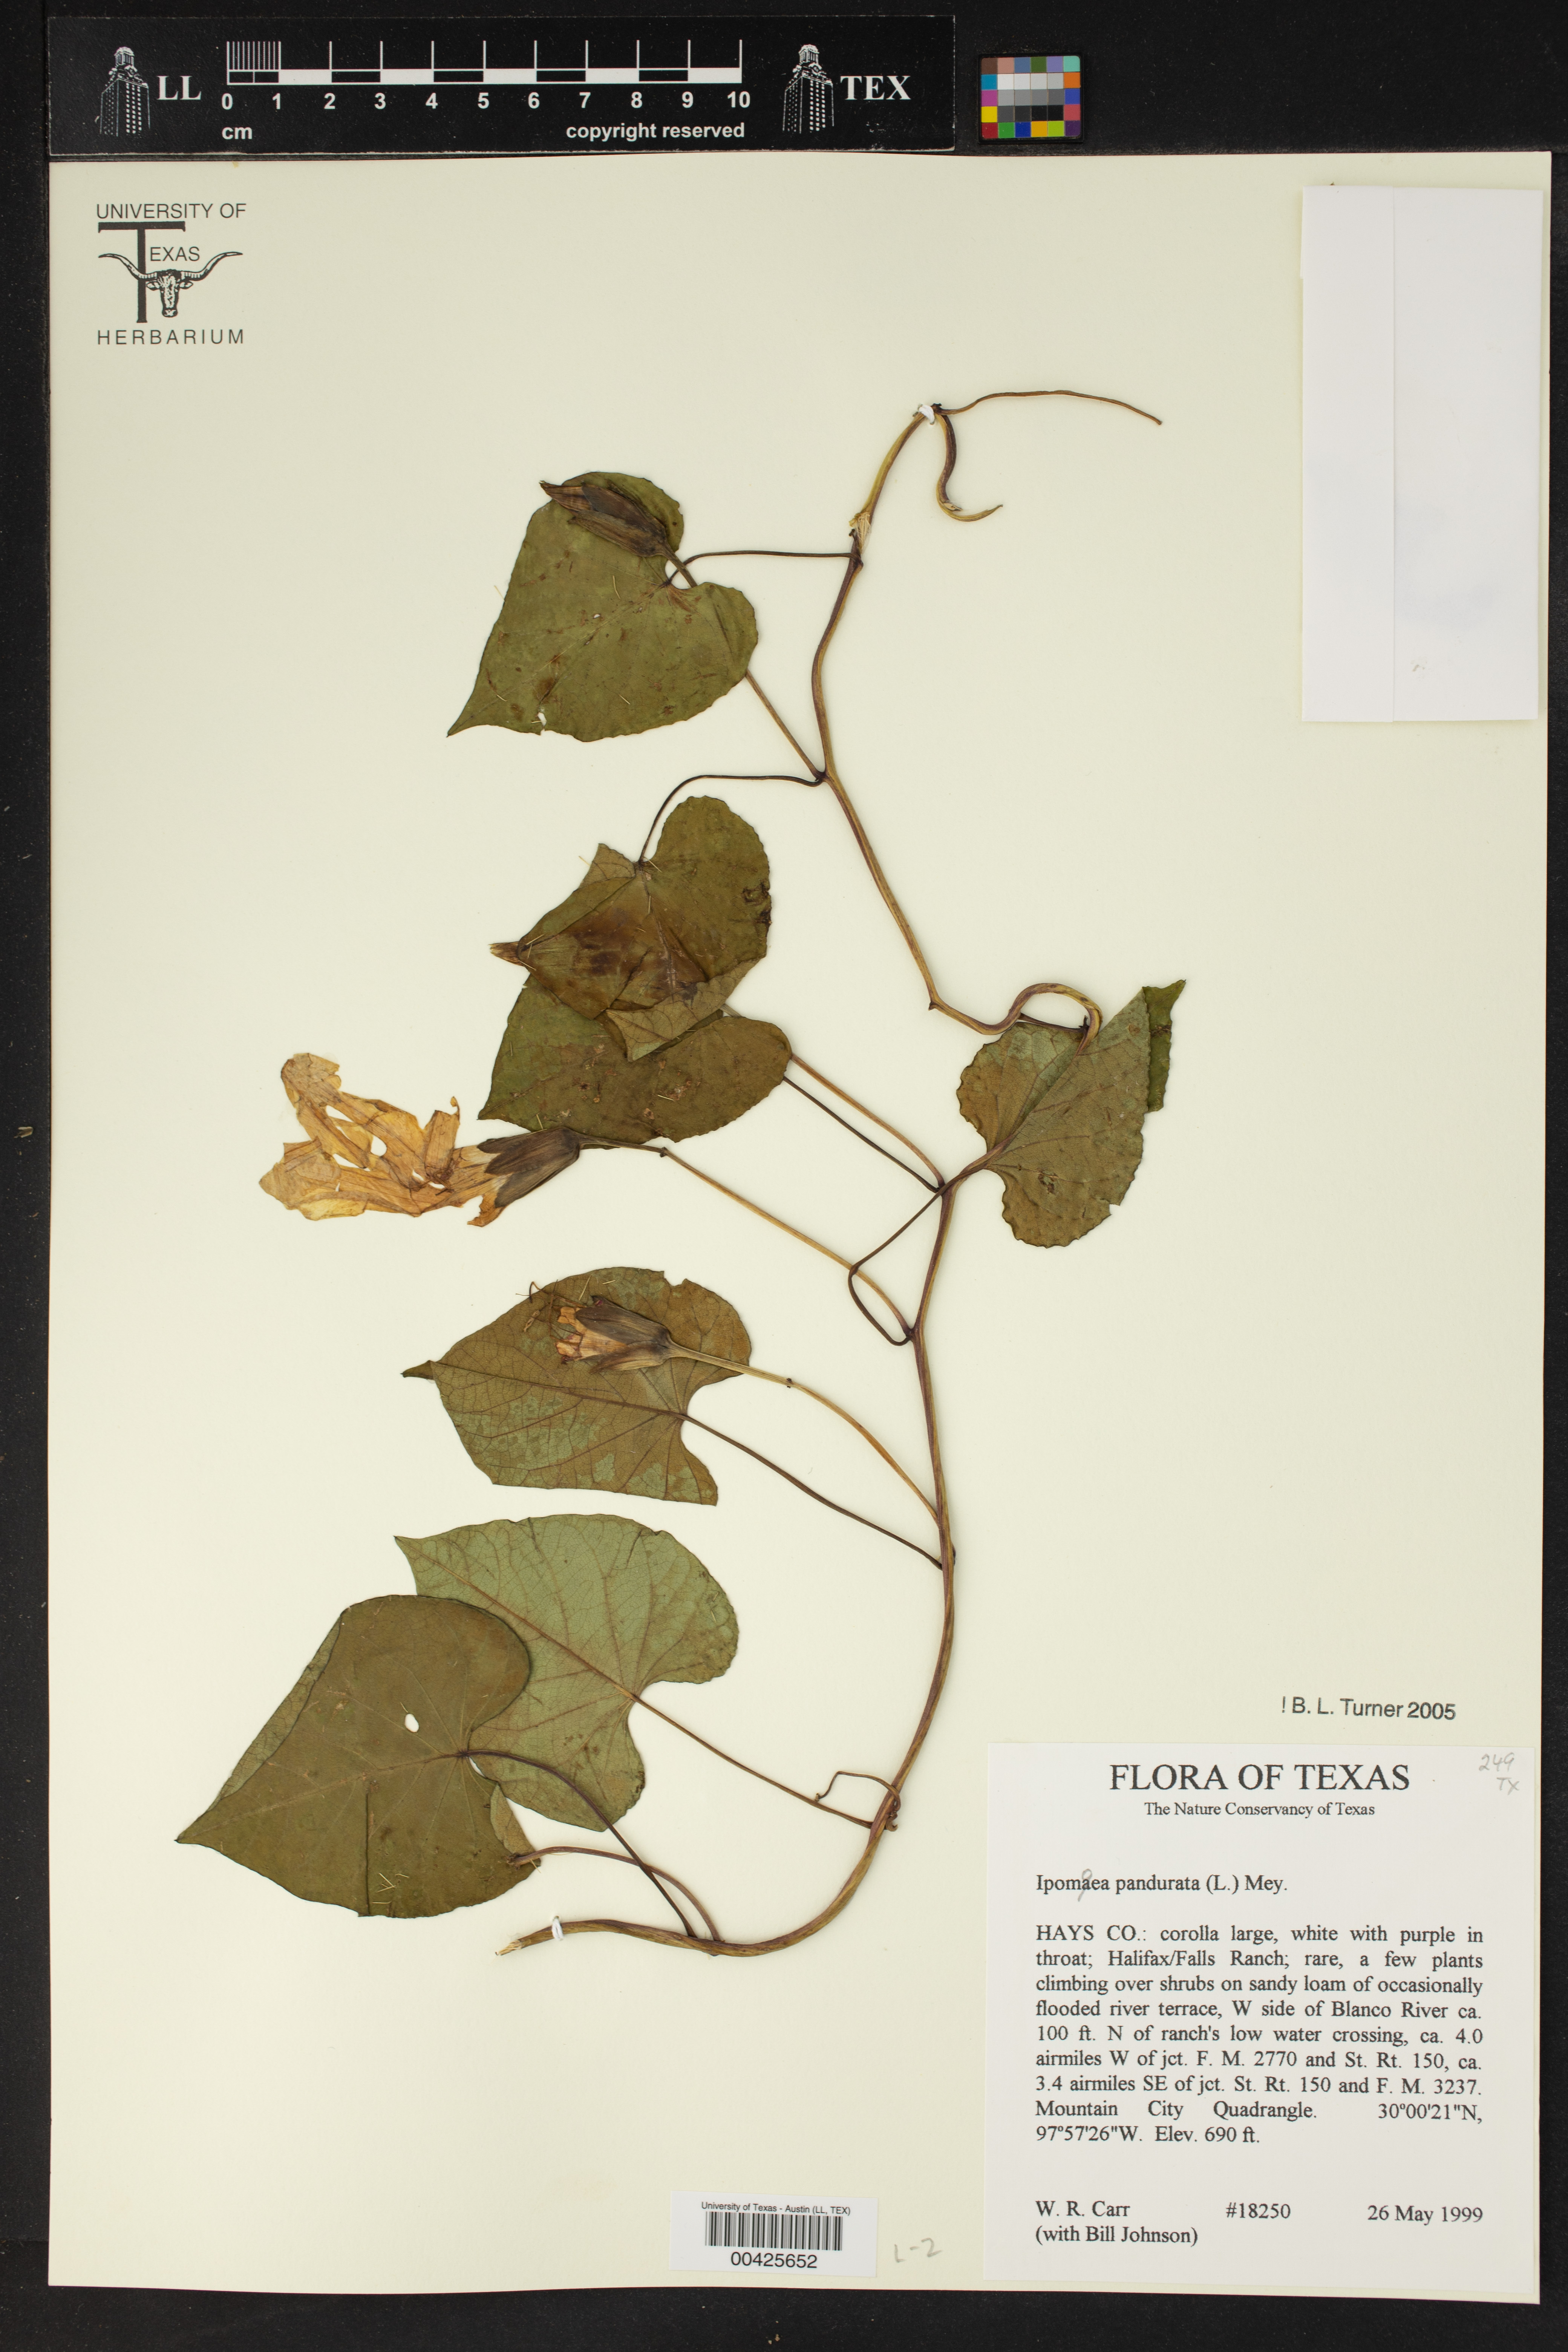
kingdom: Plantae
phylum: Tracheophyta
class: Magnoliopsida
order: Solanales
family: Convolvulaceae
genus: Ipomoea
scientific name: Ipomoea pandurata
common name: Man-of-the-earth
